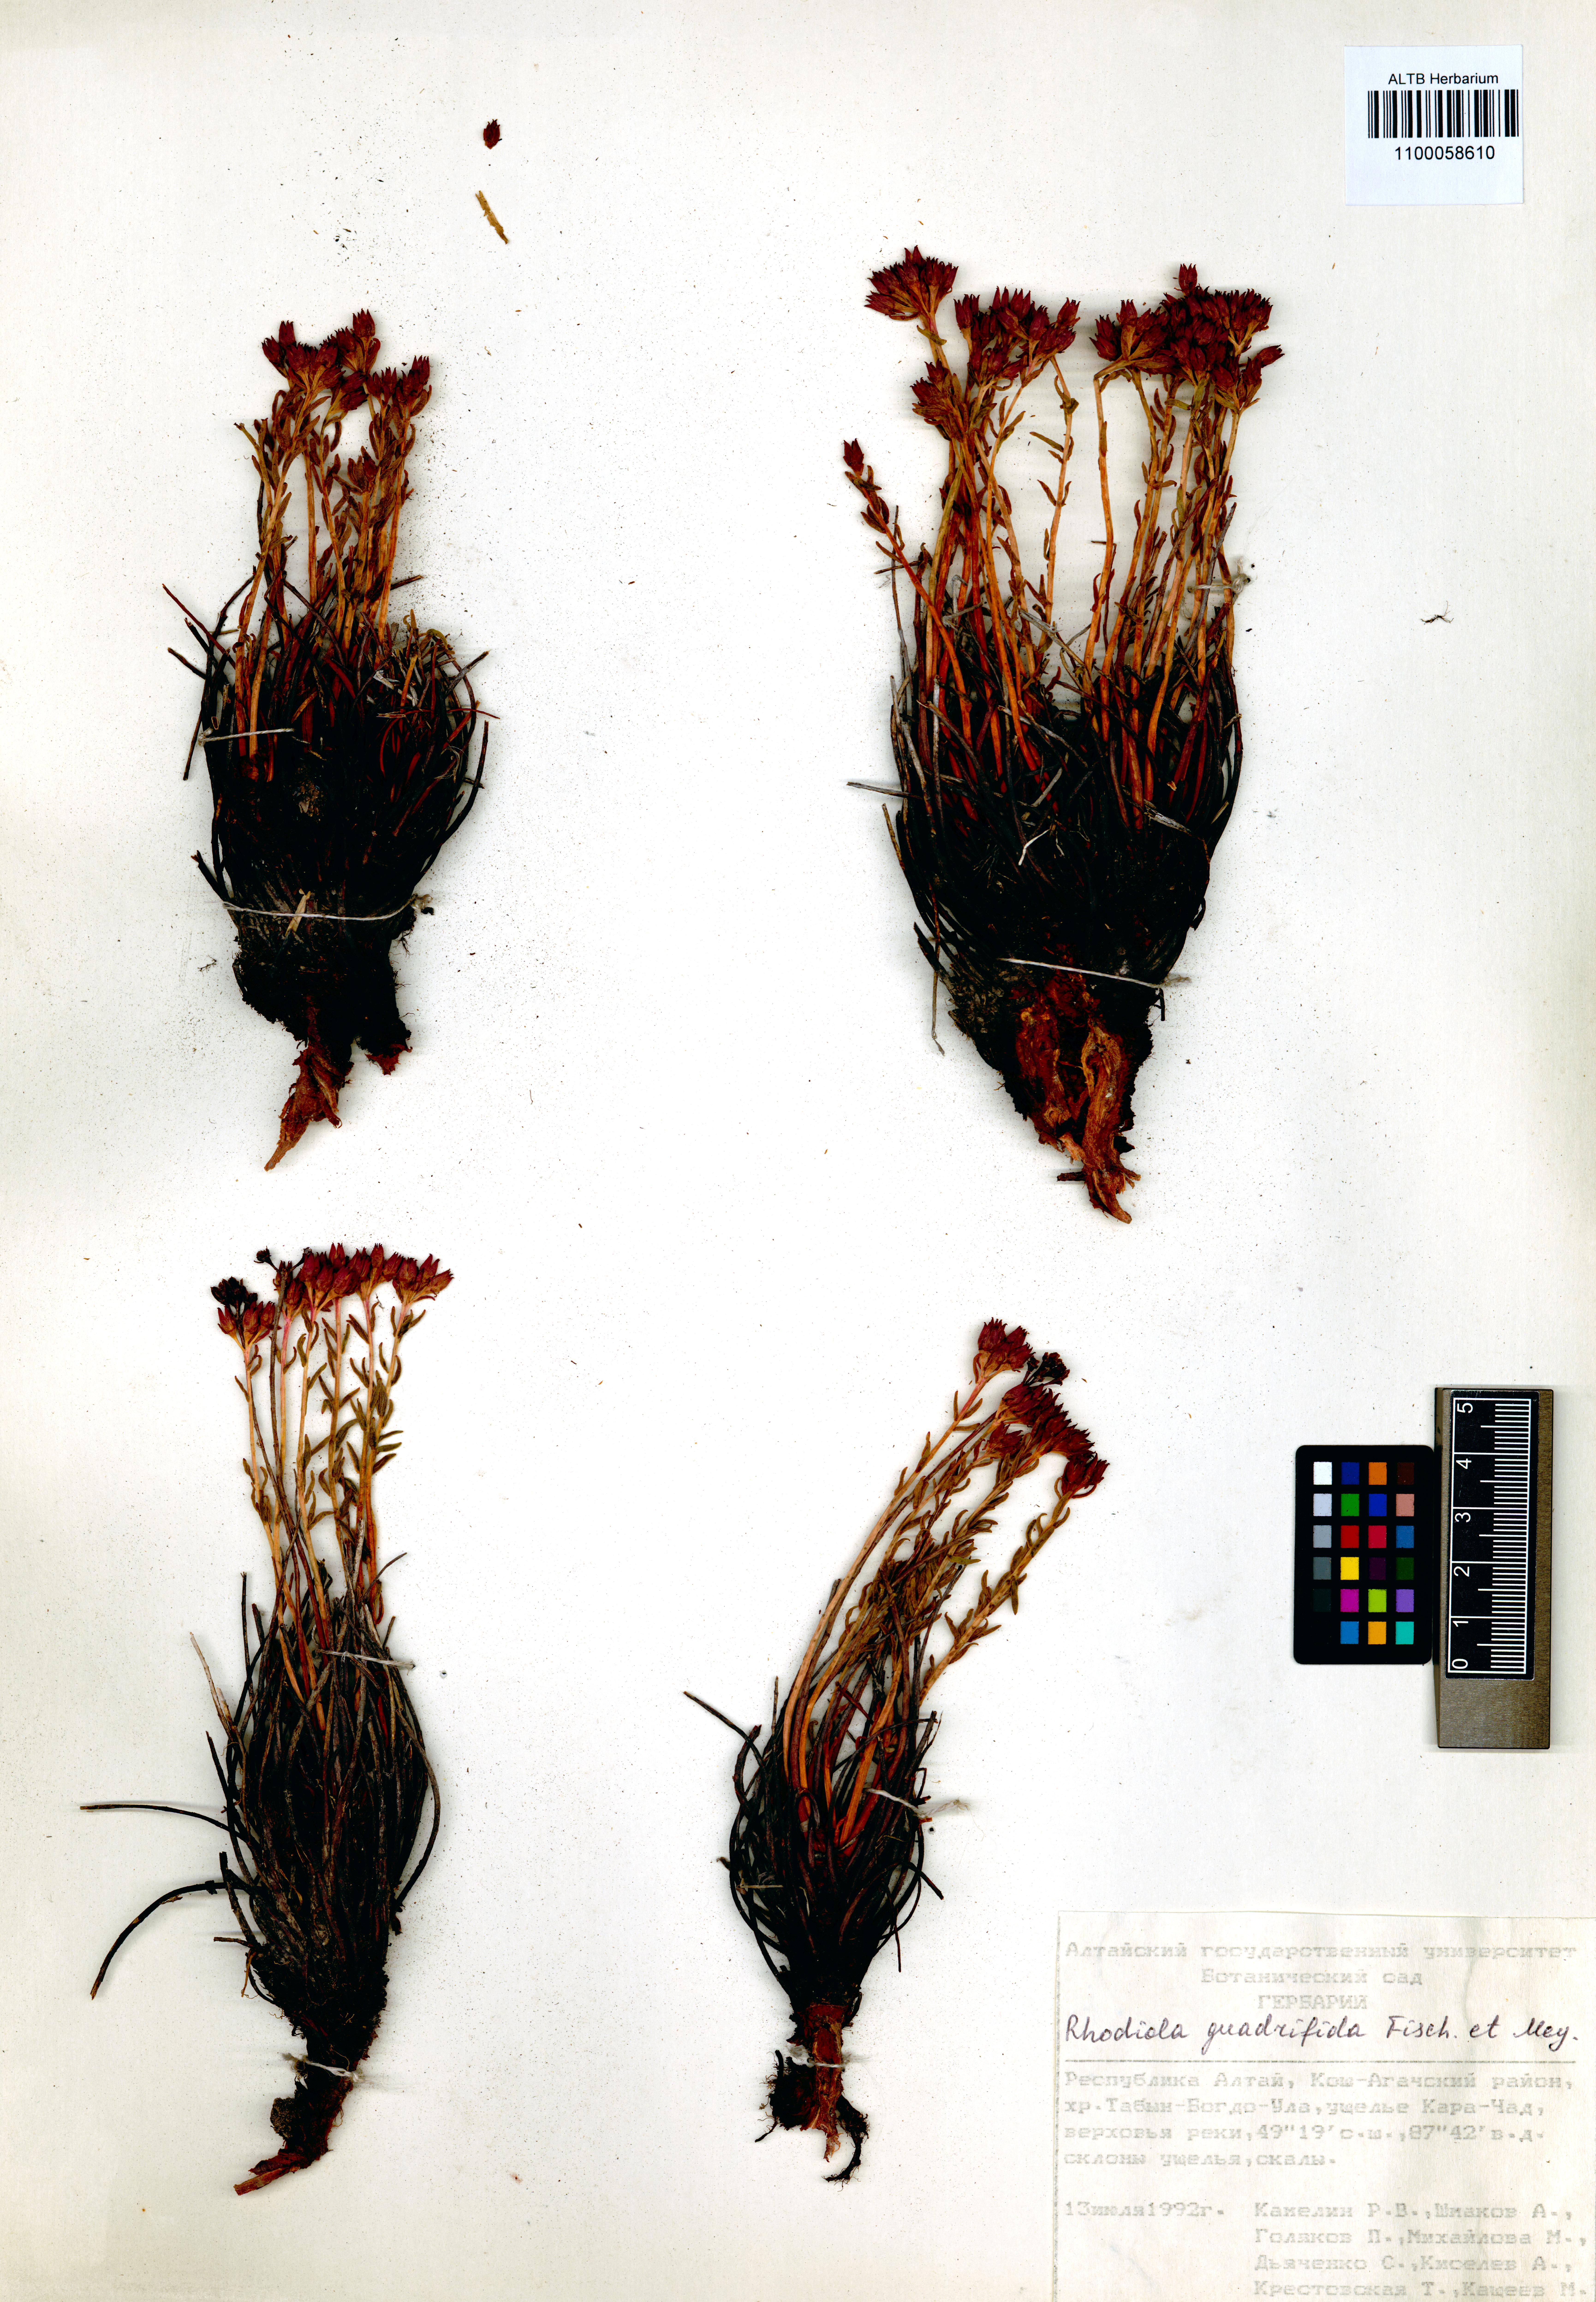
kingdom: Plantae
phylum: Tracheophyta
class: Magnoliopsida
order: Saxifragales
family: Crassulaceae
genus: Rhodiola
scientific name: Rhodiola quadrifida
